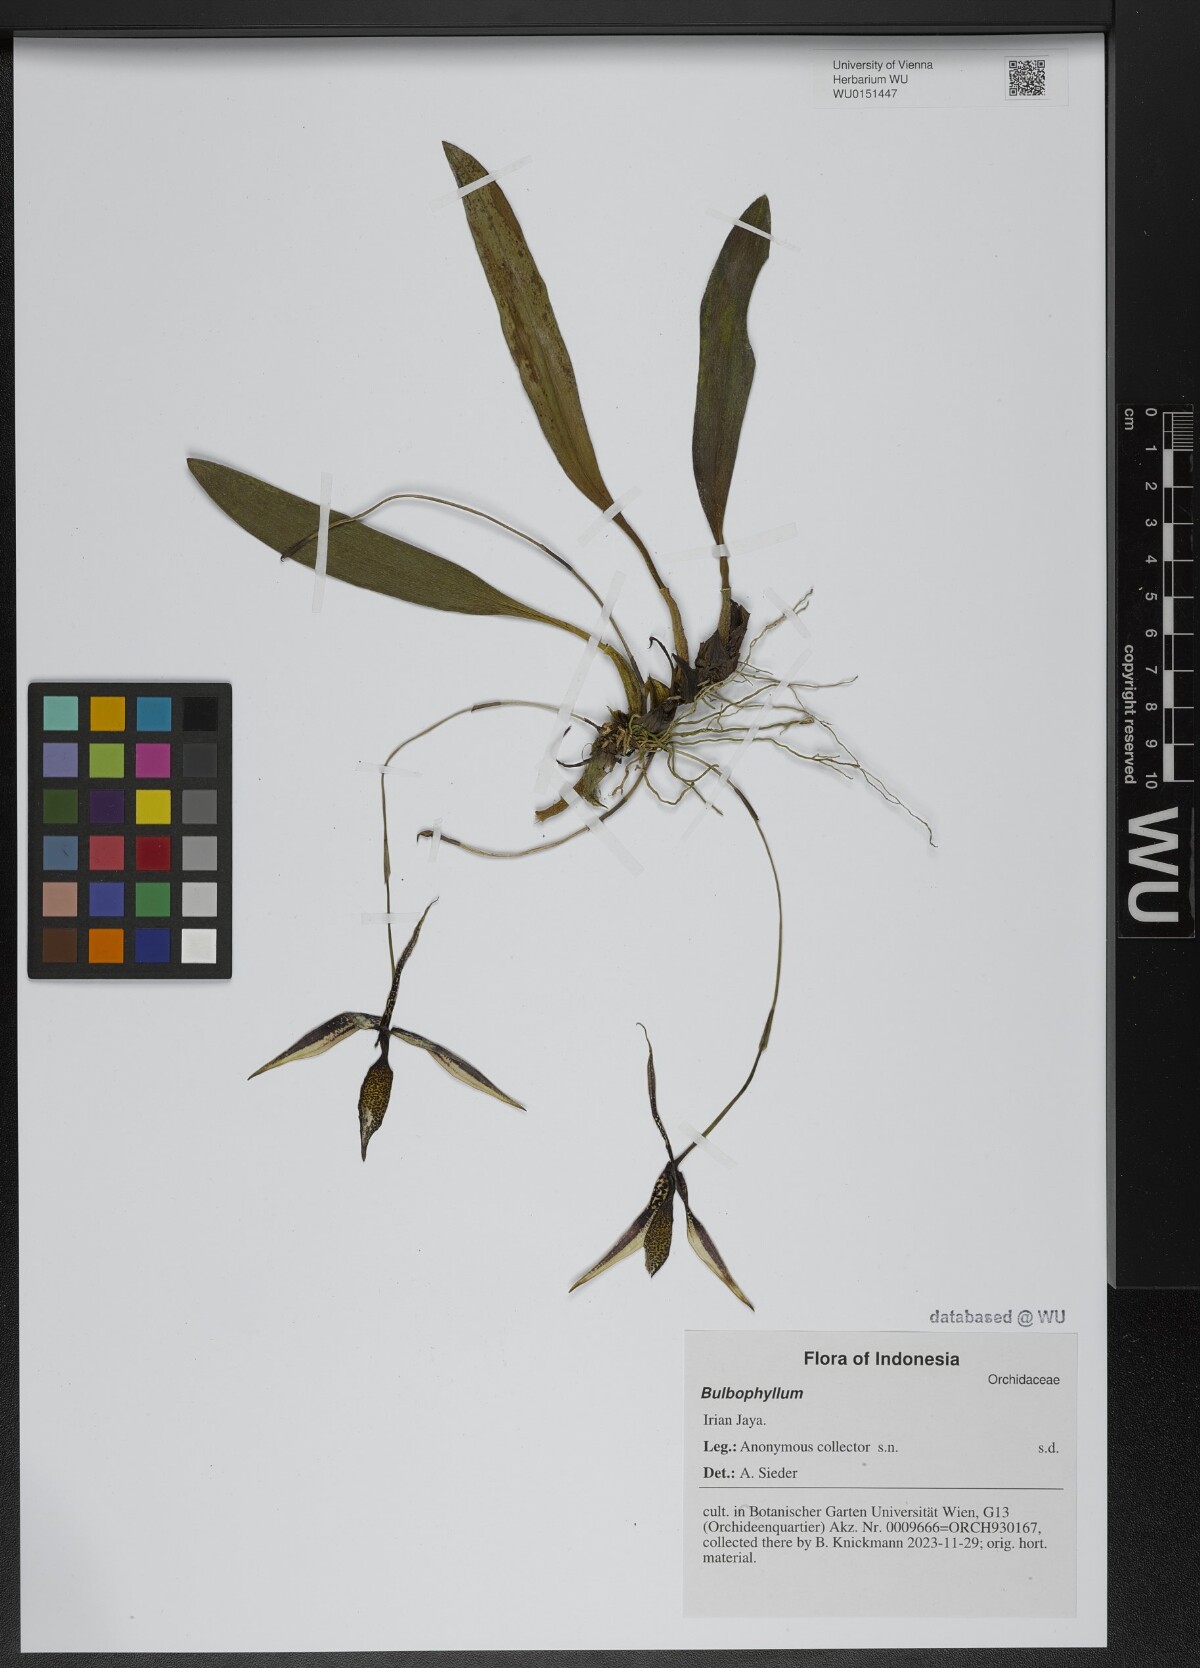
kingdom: Plantae
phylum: Tracheophyta
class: Liliopsida
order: Asparagales
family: Orchidaceae
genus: Bulbophyllum
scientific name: Bulbophyllum
